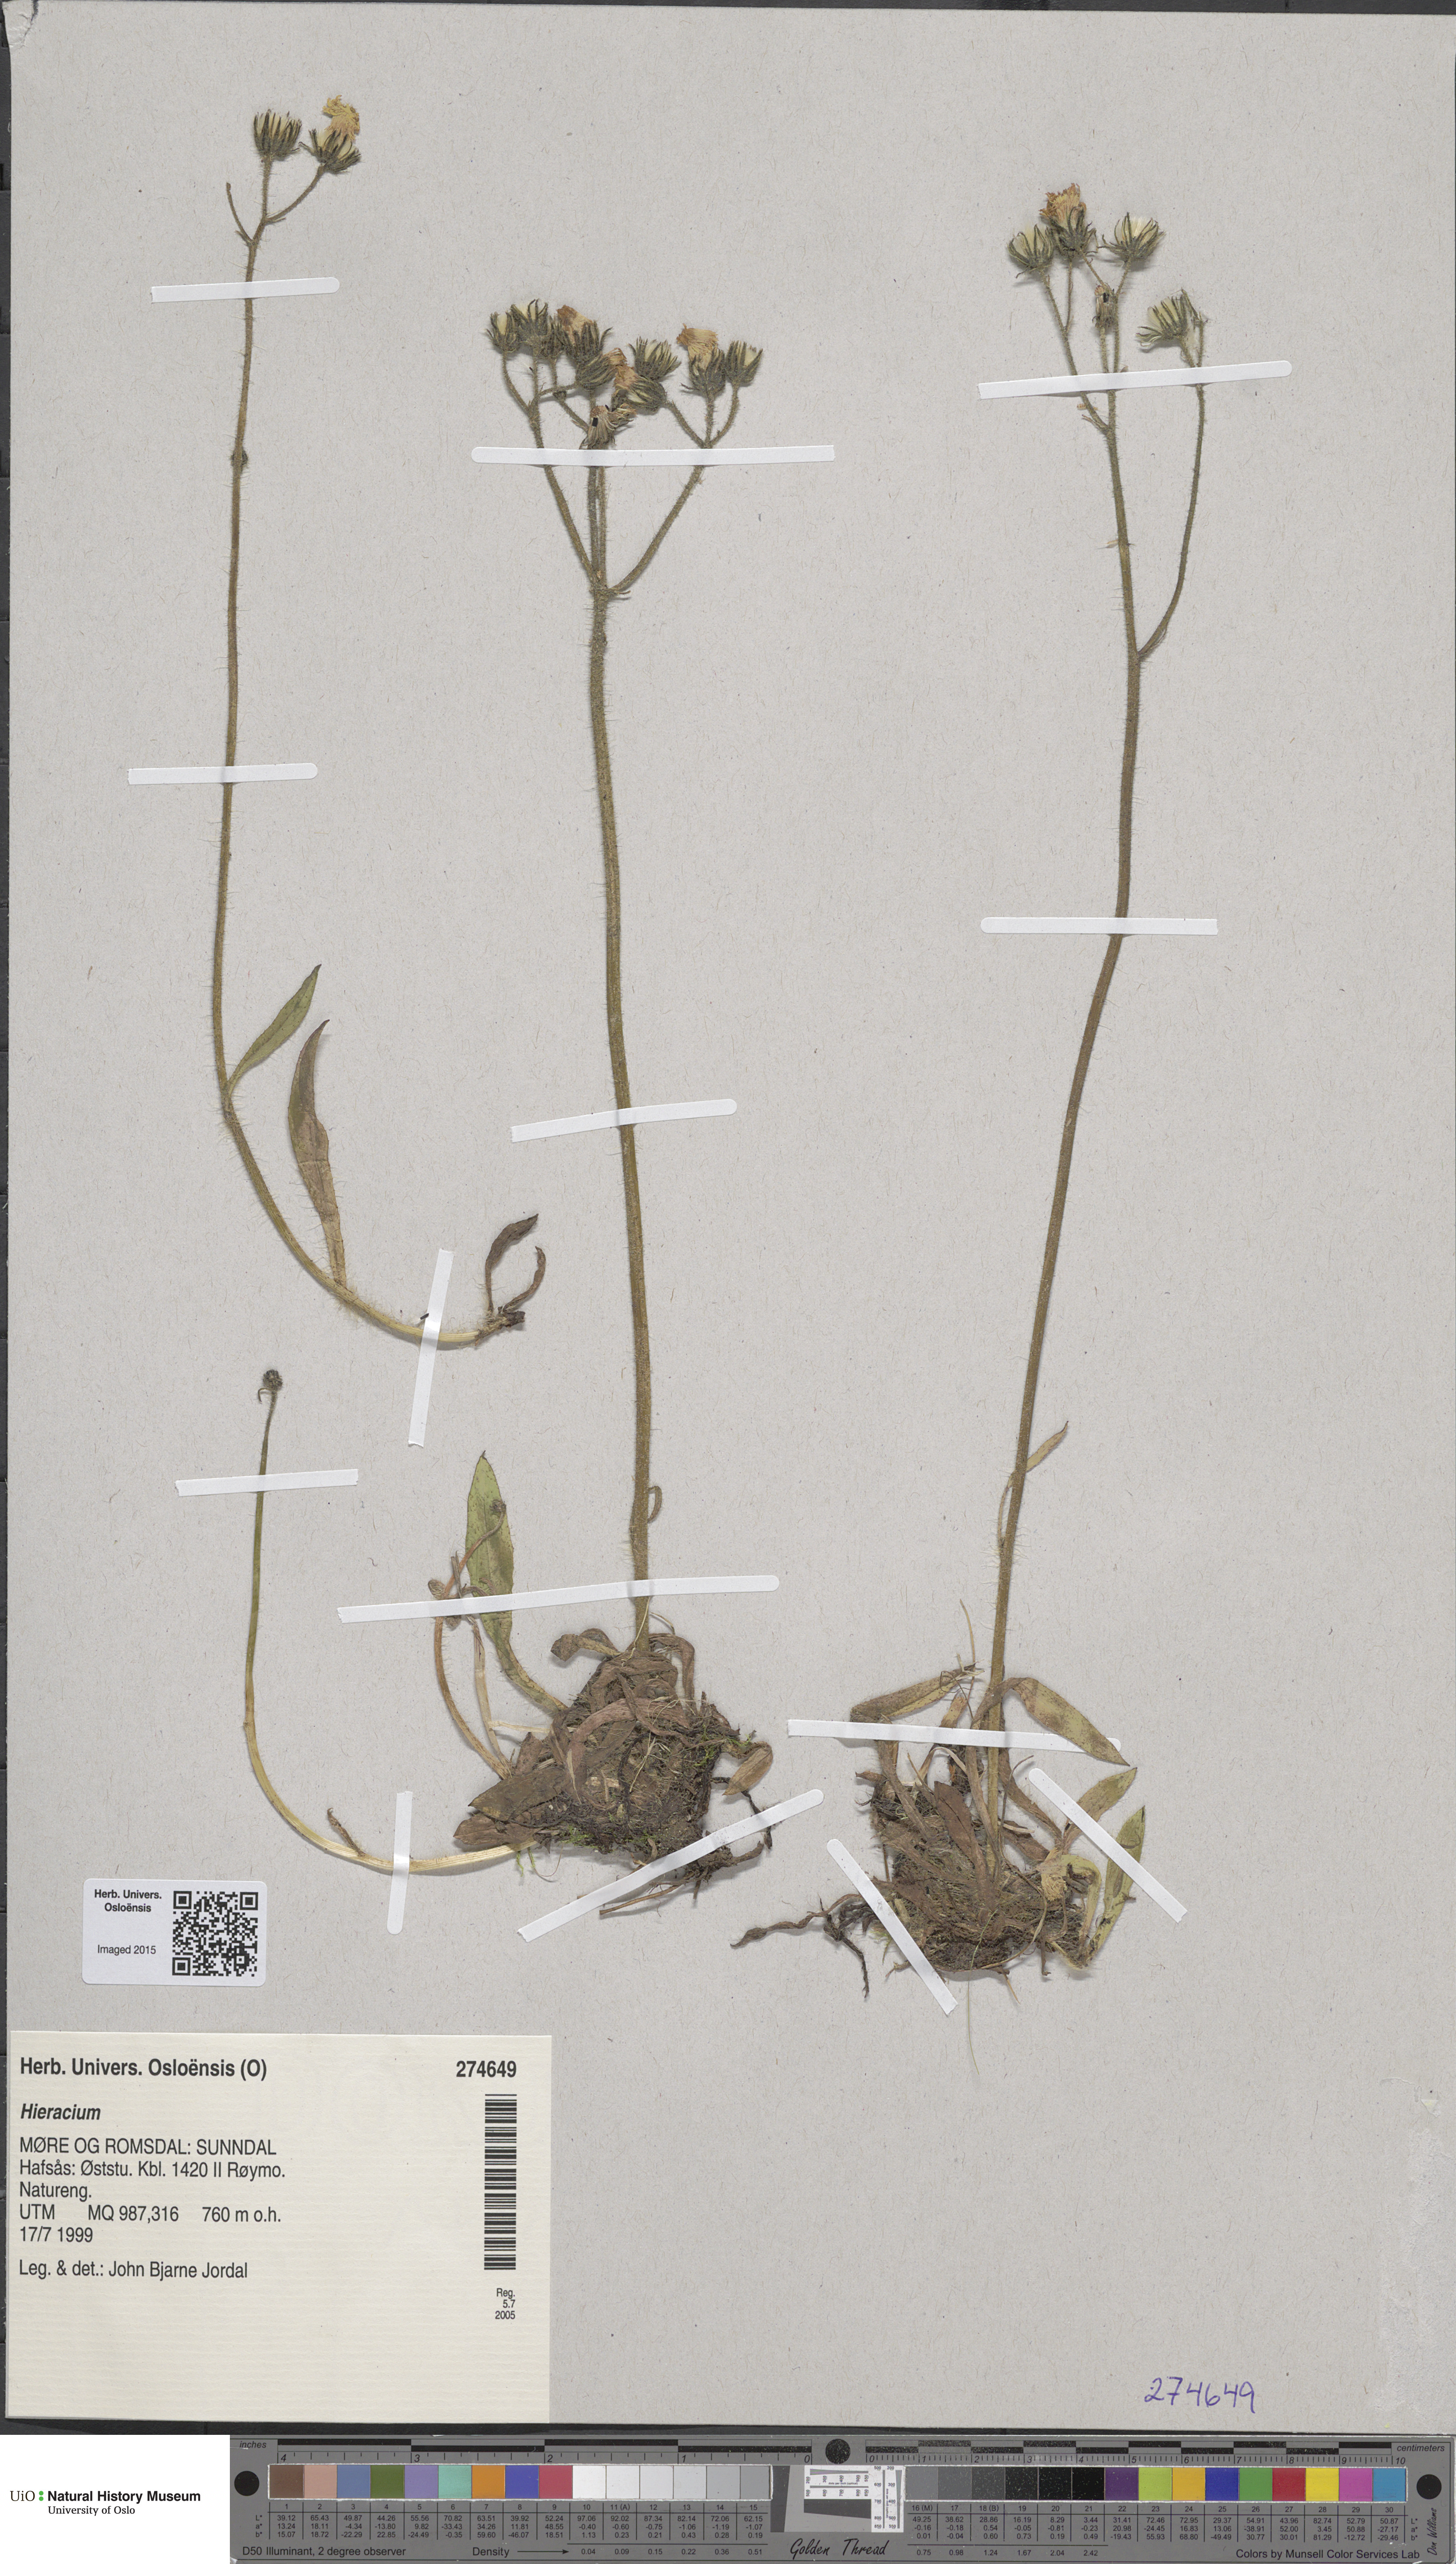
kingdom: Plantae
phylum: Tracheophyta
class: Magnoliopsida
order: Asterales
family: Asteraceae
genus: Hieracium
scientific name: Hieracium
